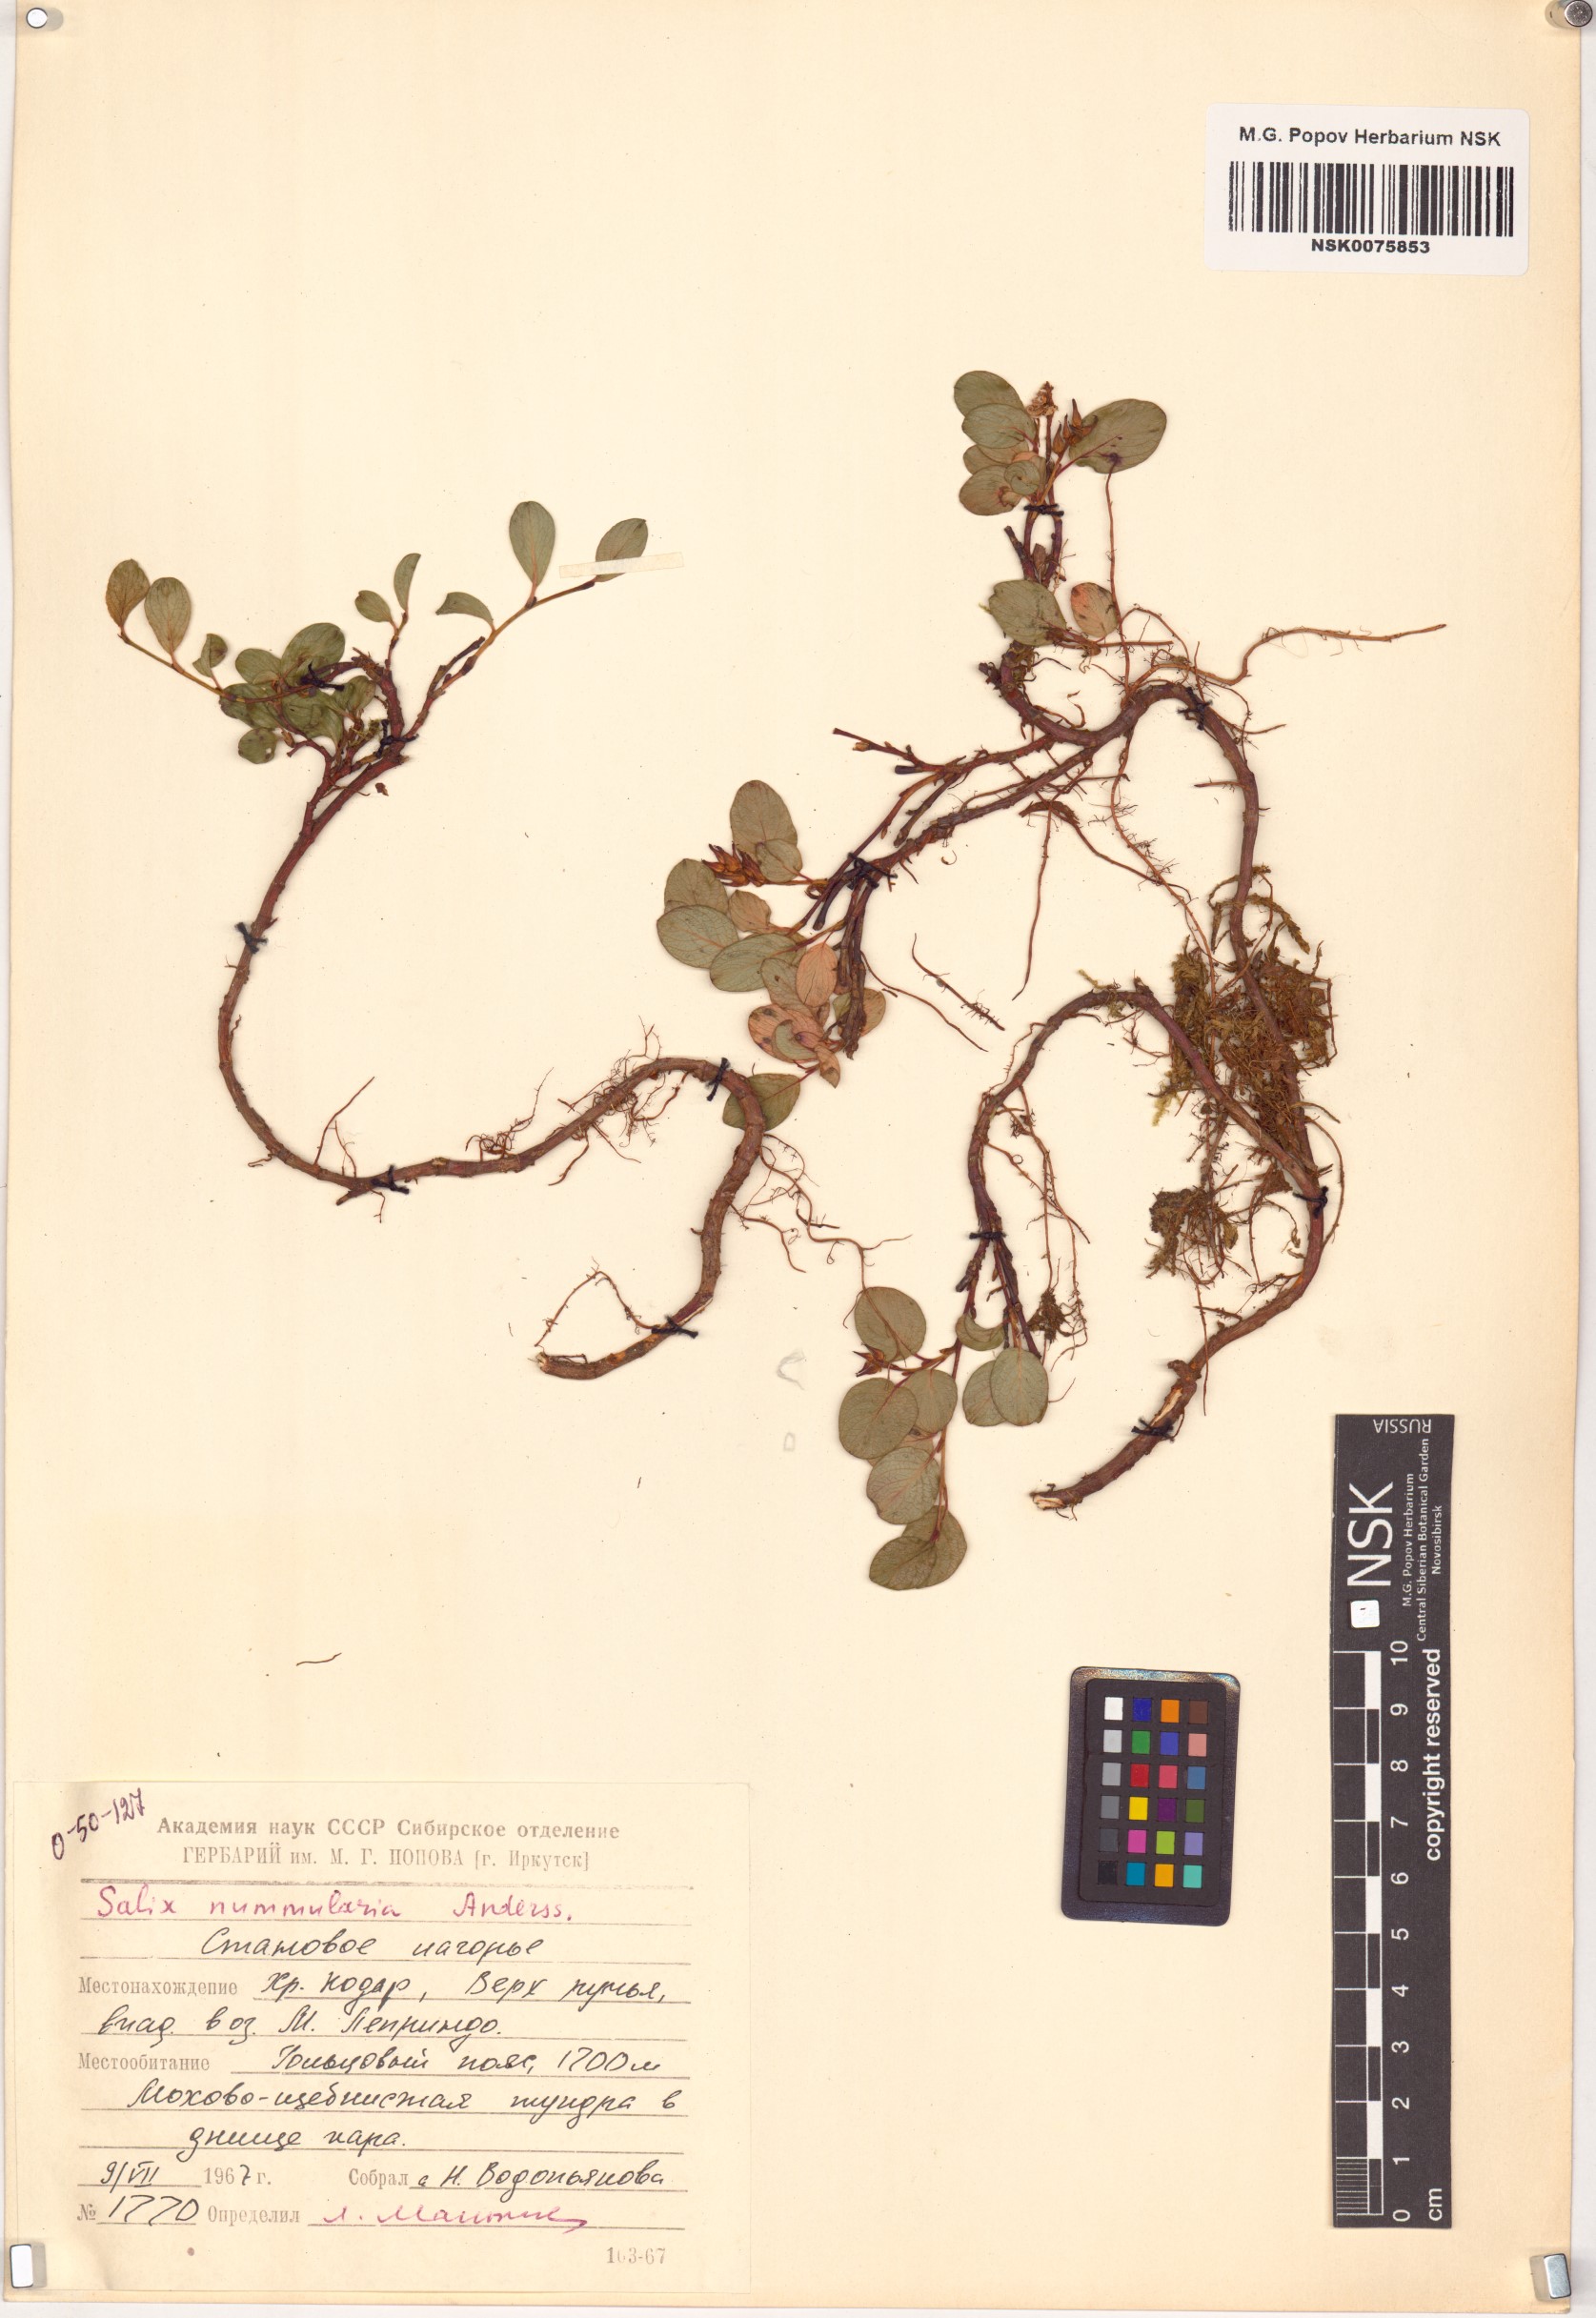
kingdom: Plantae
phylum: Tracheophyta
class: Magnoliopsida
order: Malpighiales
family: Salicaceae
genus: Salix
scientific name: Salix nummularia
